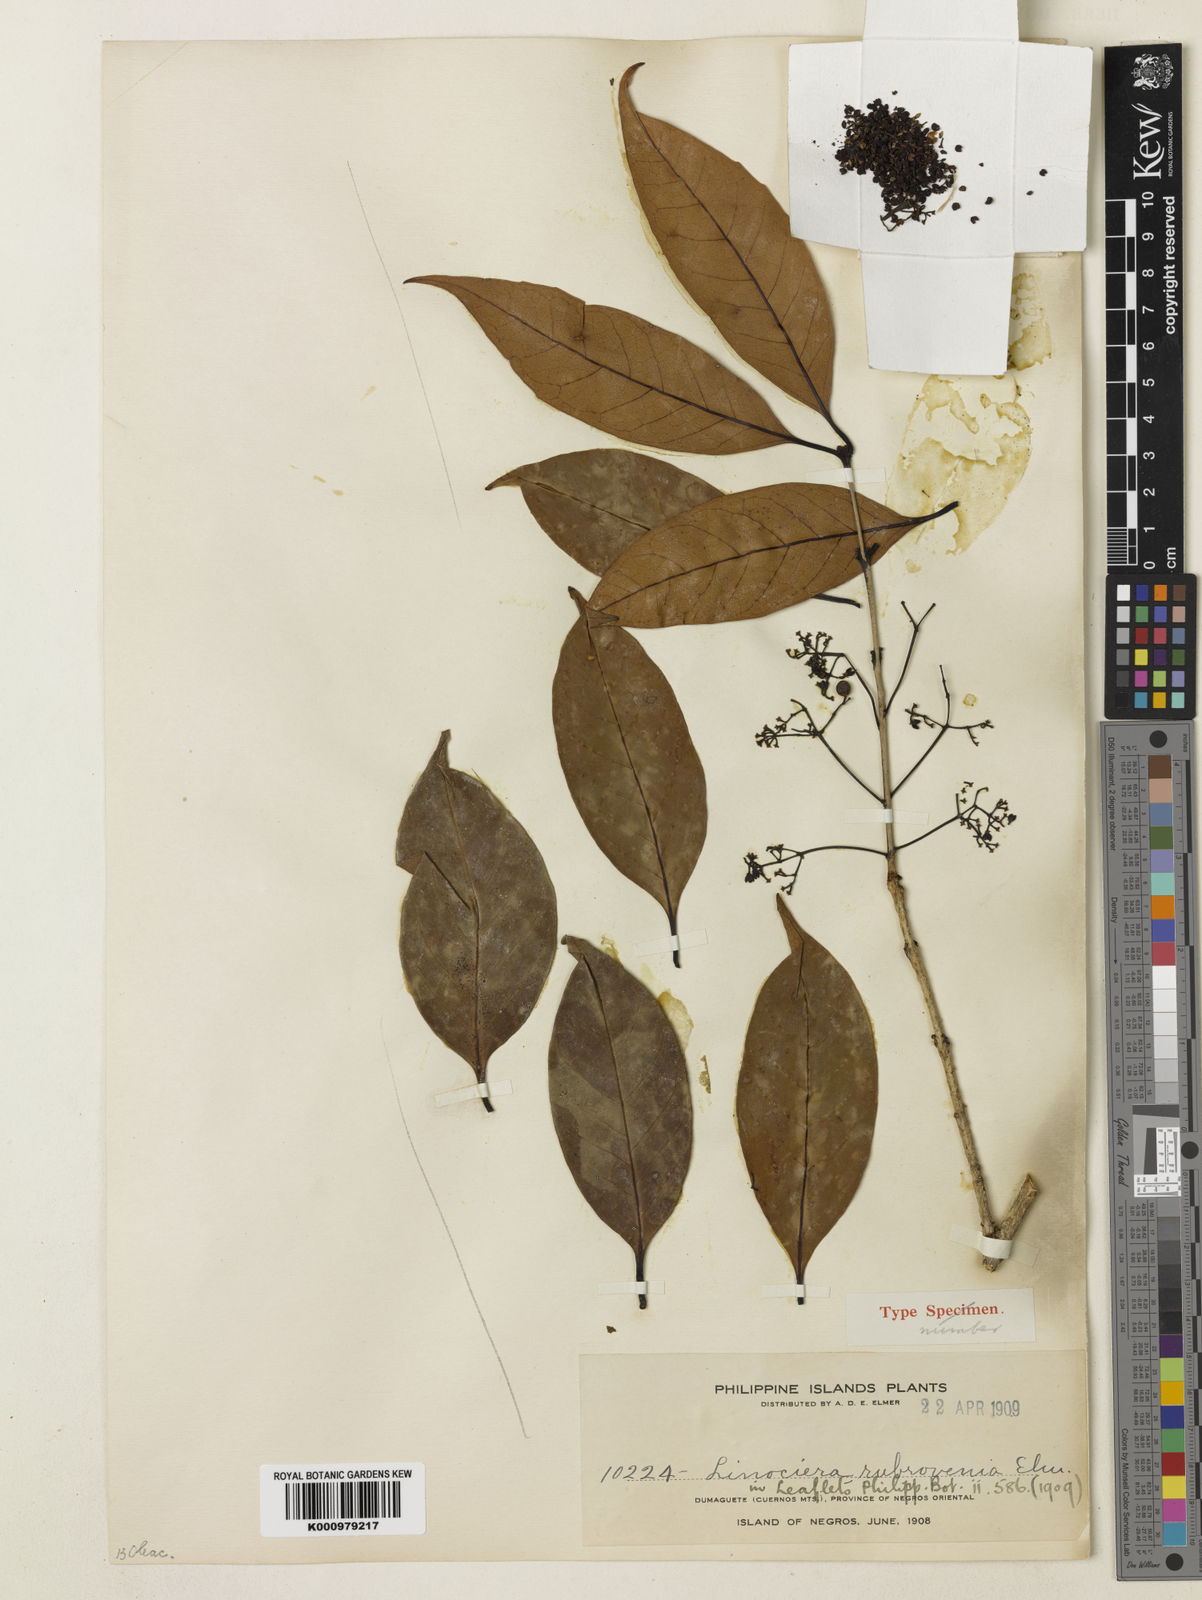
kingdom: Plantae
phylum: Tracheophyta
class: Magnoliopsida
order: Lamiales
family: Oleaceae
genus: Tetrapilus
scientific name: Tetrapilus rubrovenius
